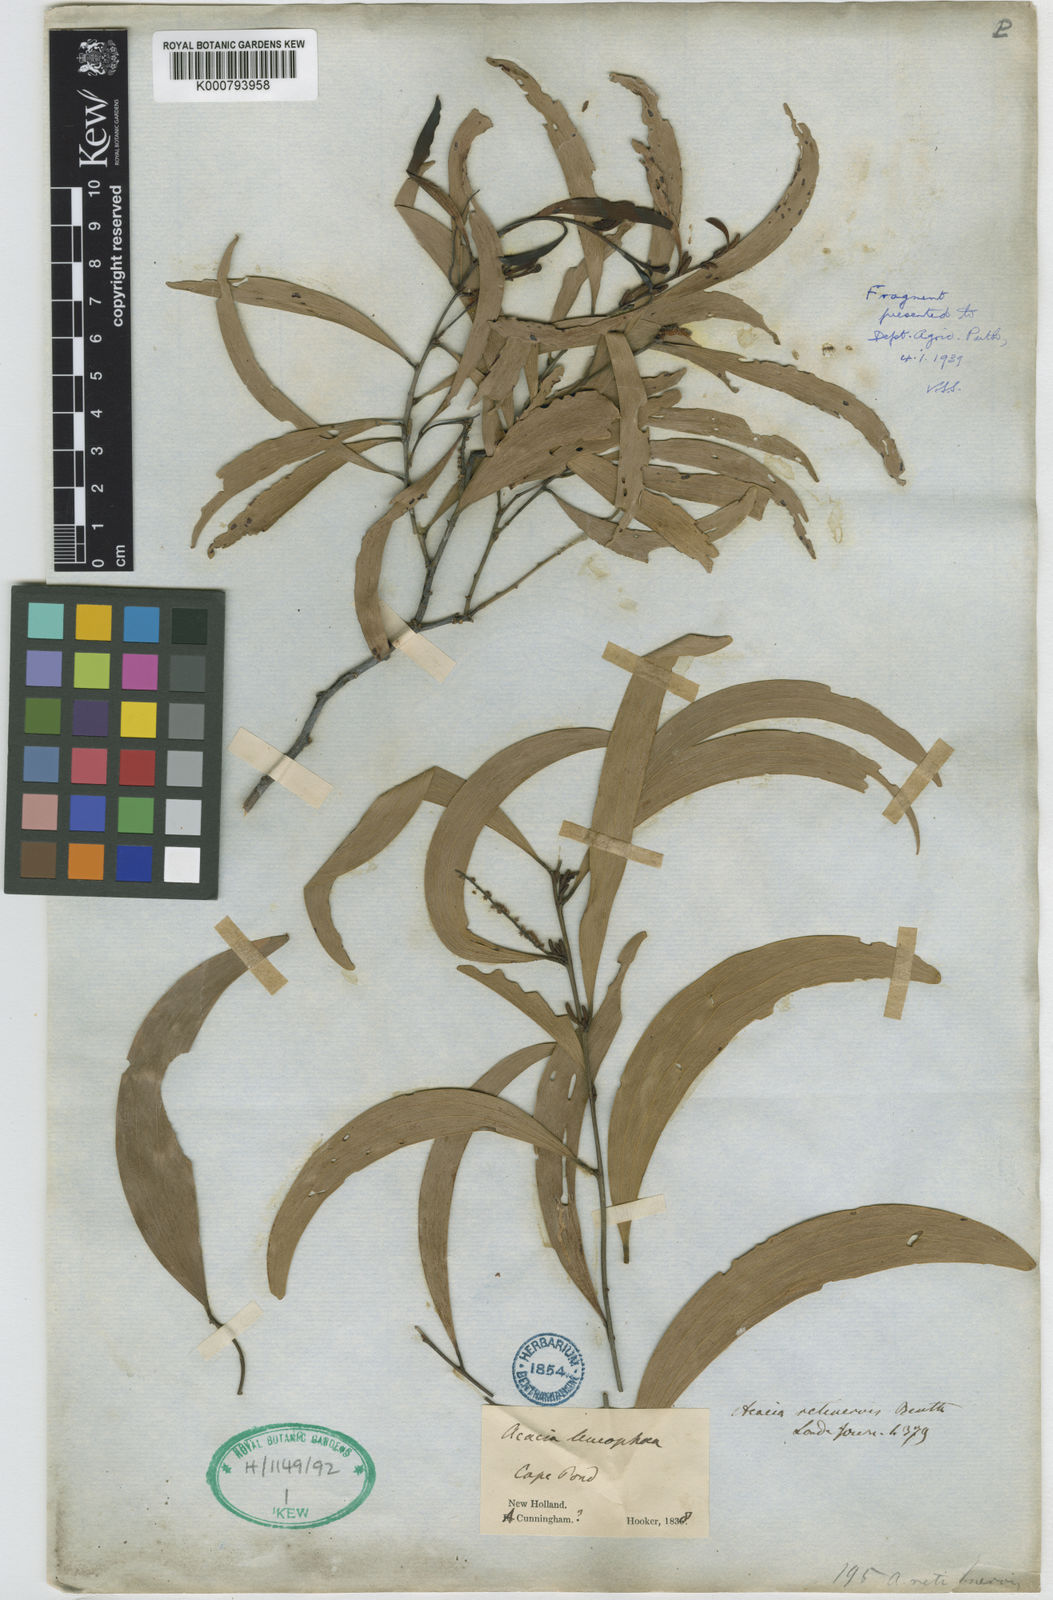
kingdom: Plantae
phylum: Tracheophyta
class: Magnoliopsida
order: Fabales
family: Fabaceae
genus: Acacia
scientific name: Acacia retinervis
